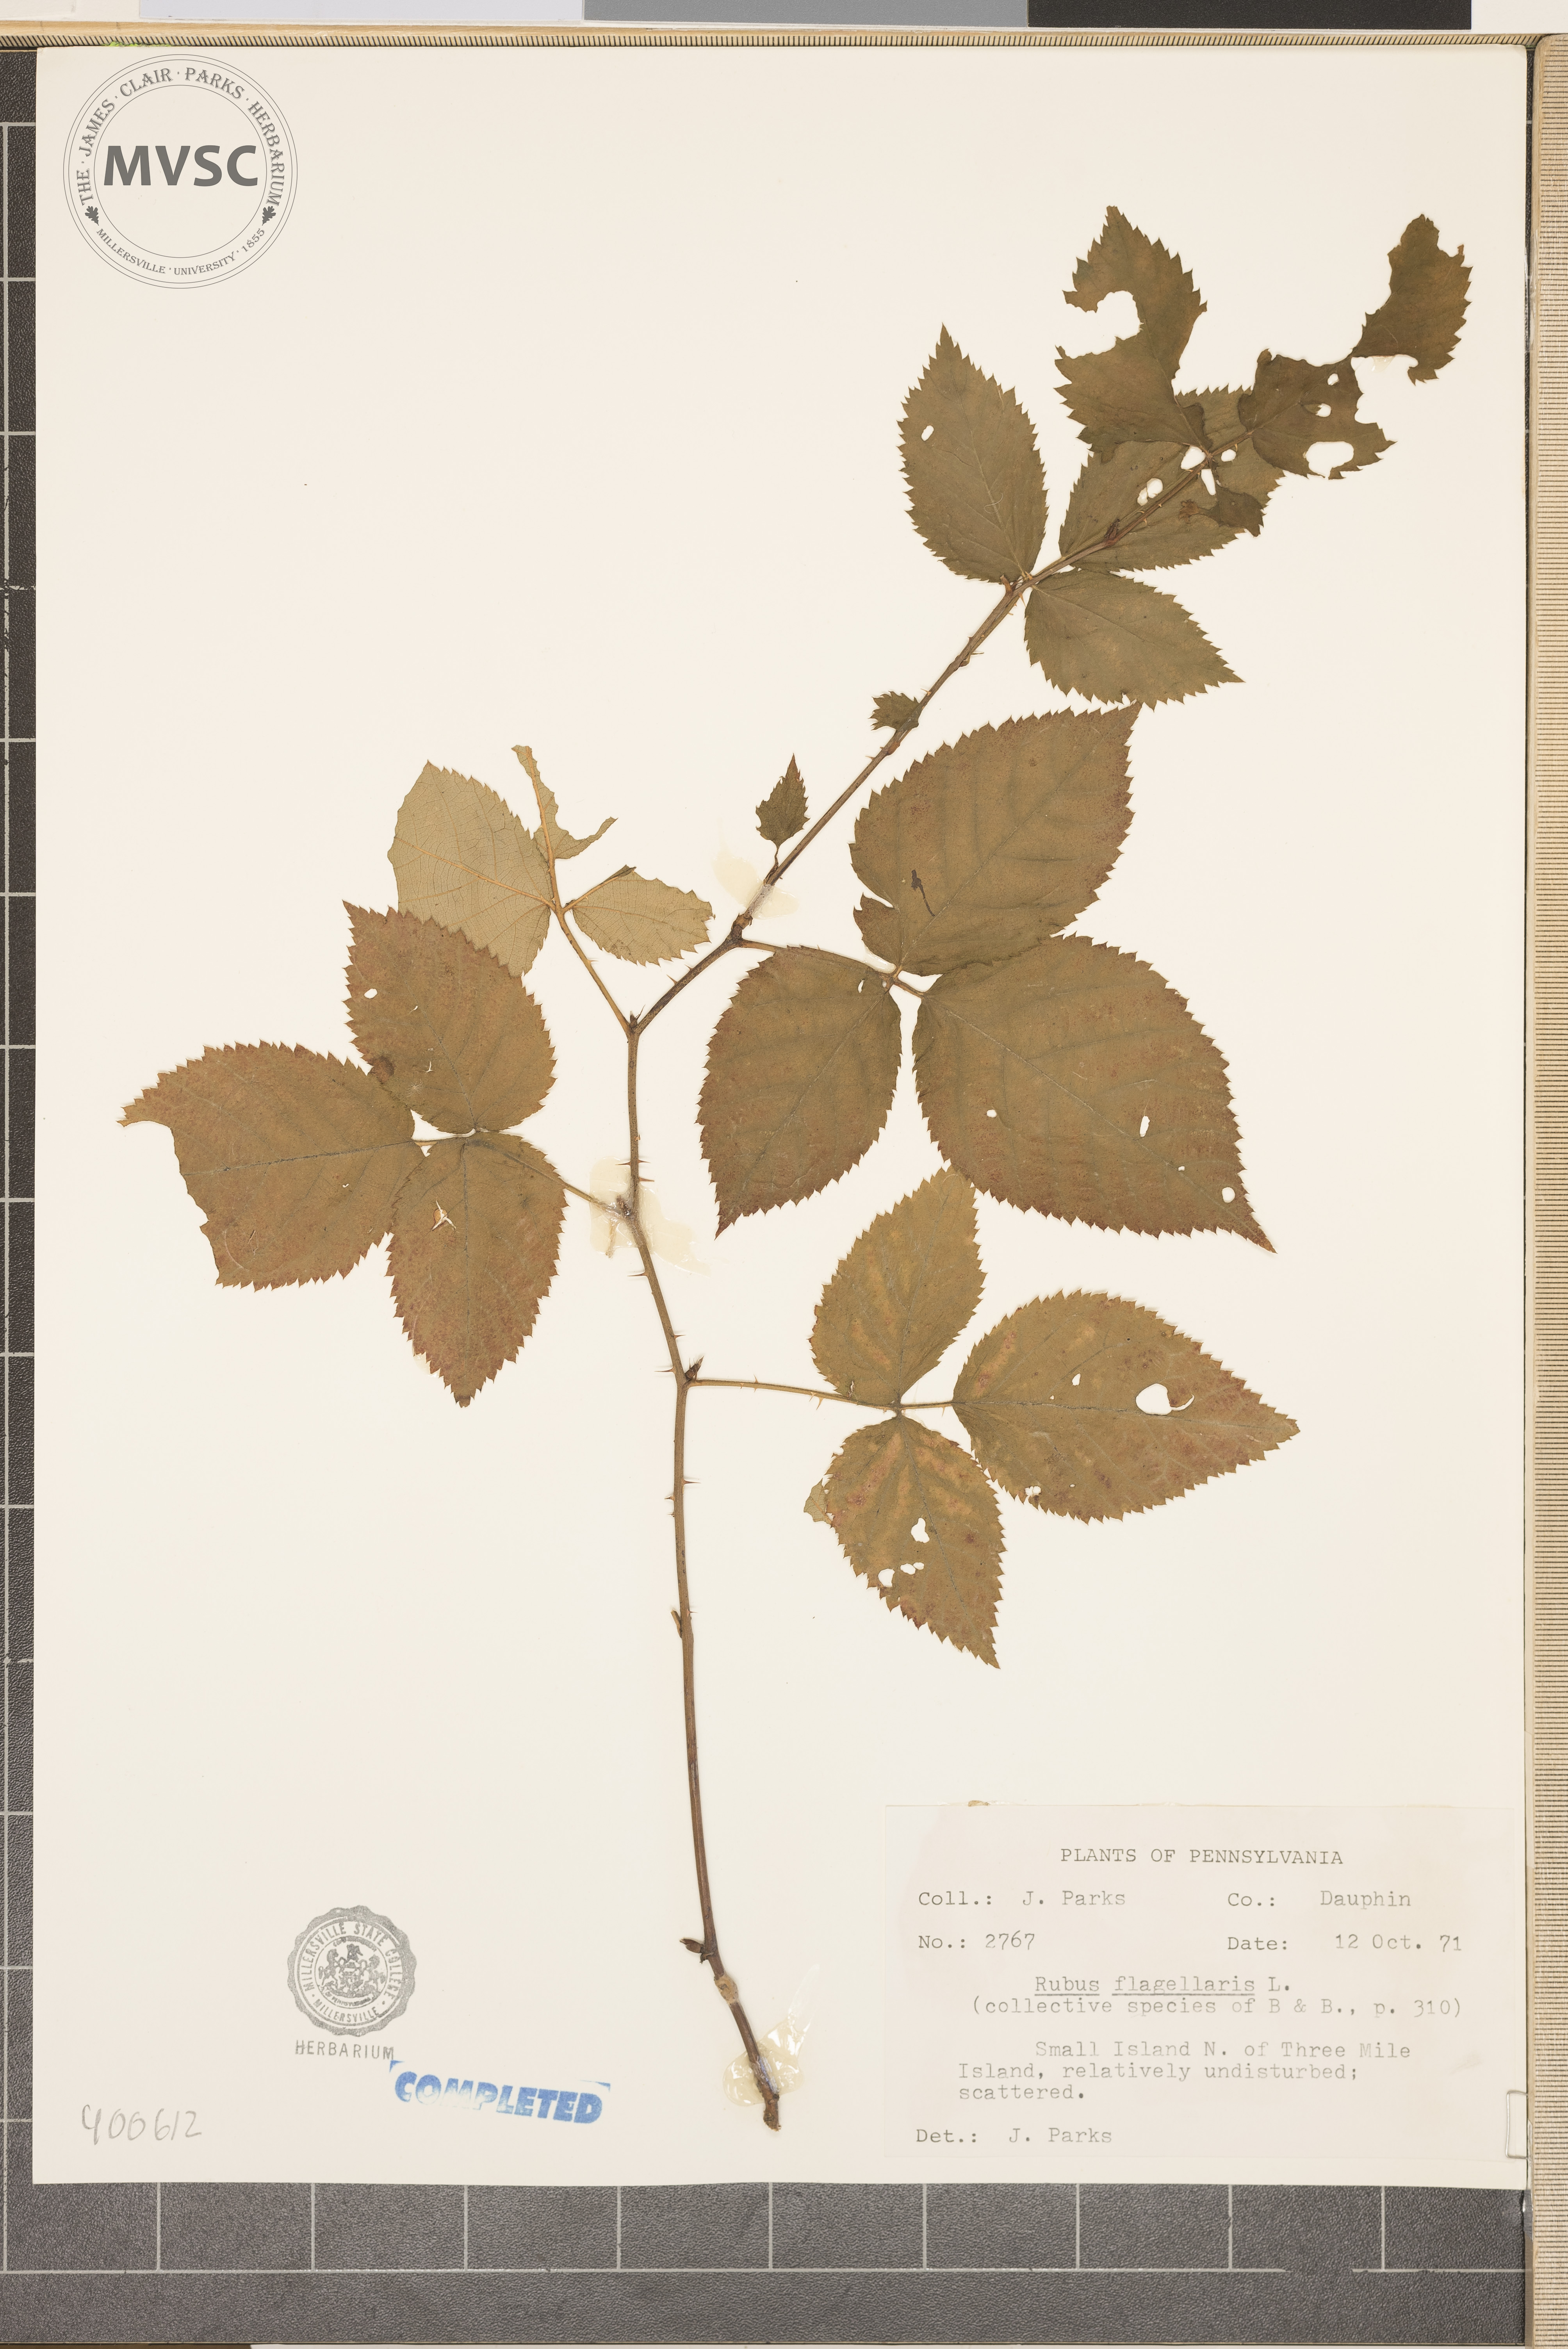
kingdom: Plantae
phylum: Tracheophyta
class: Magnoliopsida
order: Rosales
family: Rosaceae
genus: Rubus
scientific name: Rubus flagellaris
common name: American dewberry
